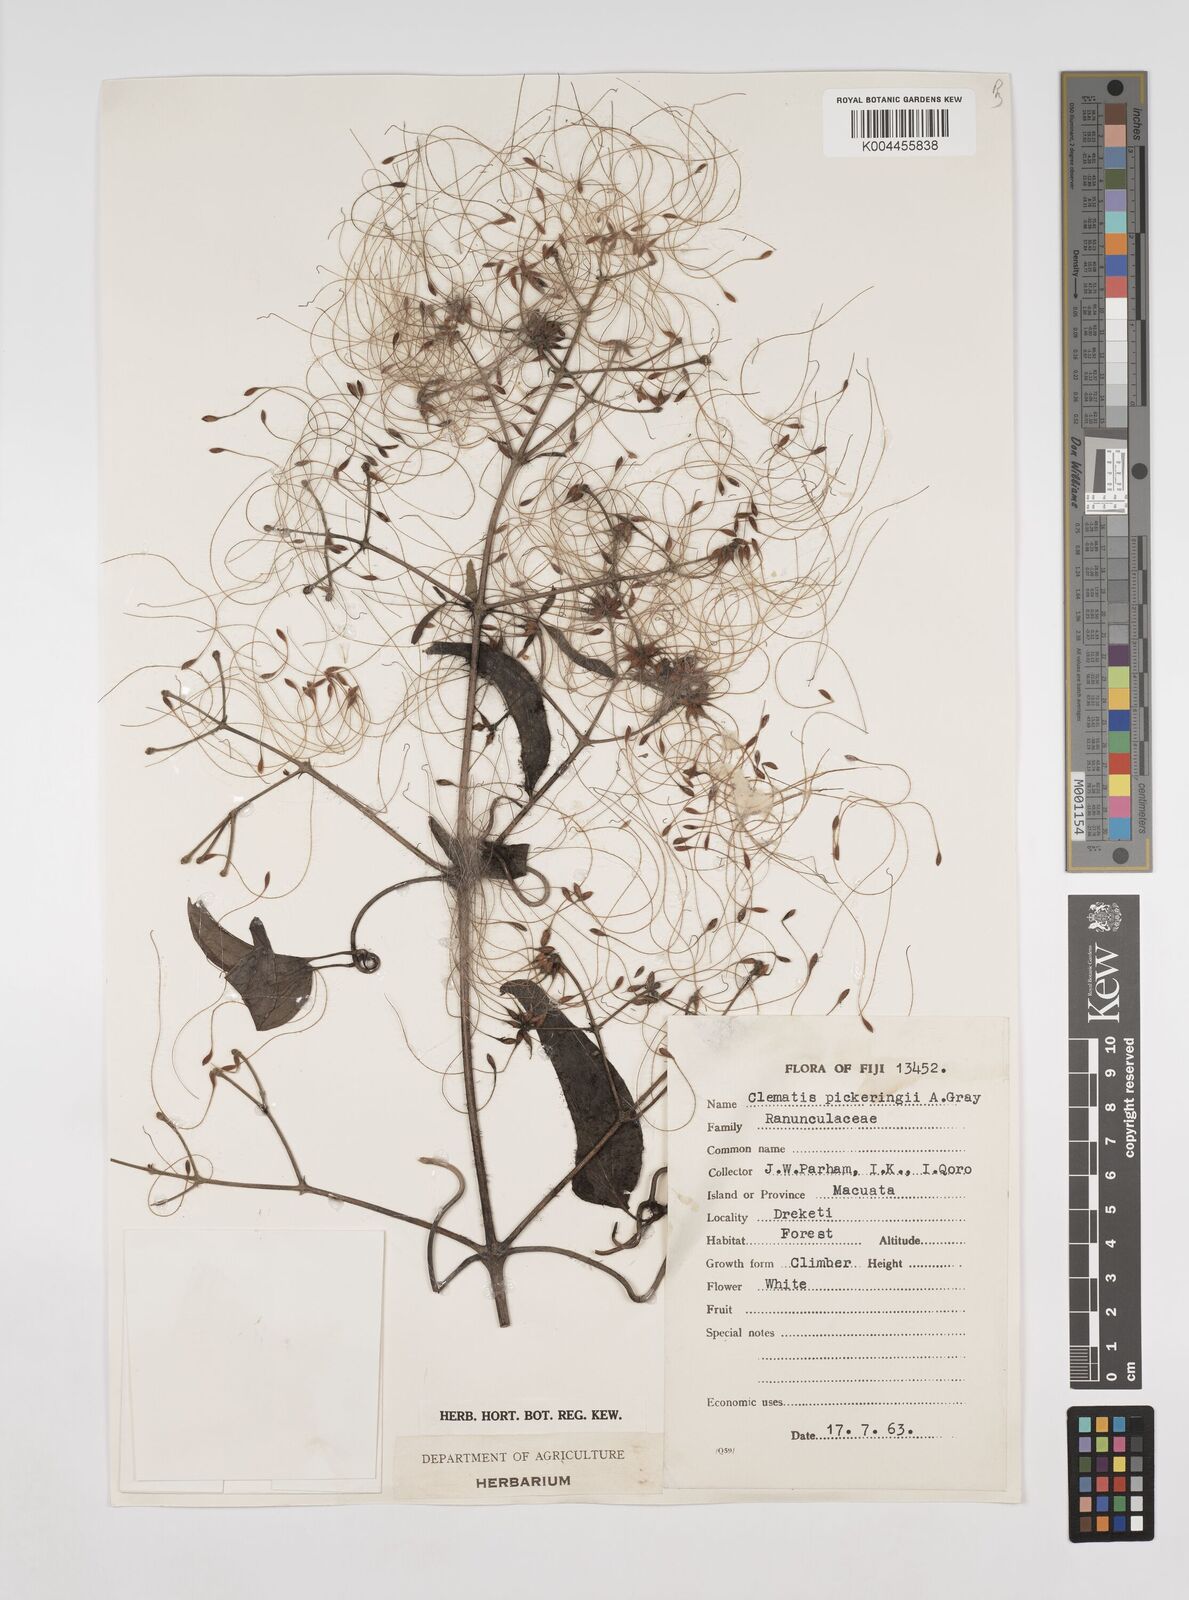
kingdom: Plantae
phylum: Tracheophyta
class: Magnoliopsida
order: Ranunculales
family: Ranunculaceae
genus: Clematis
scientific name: Clematis pickeringii
